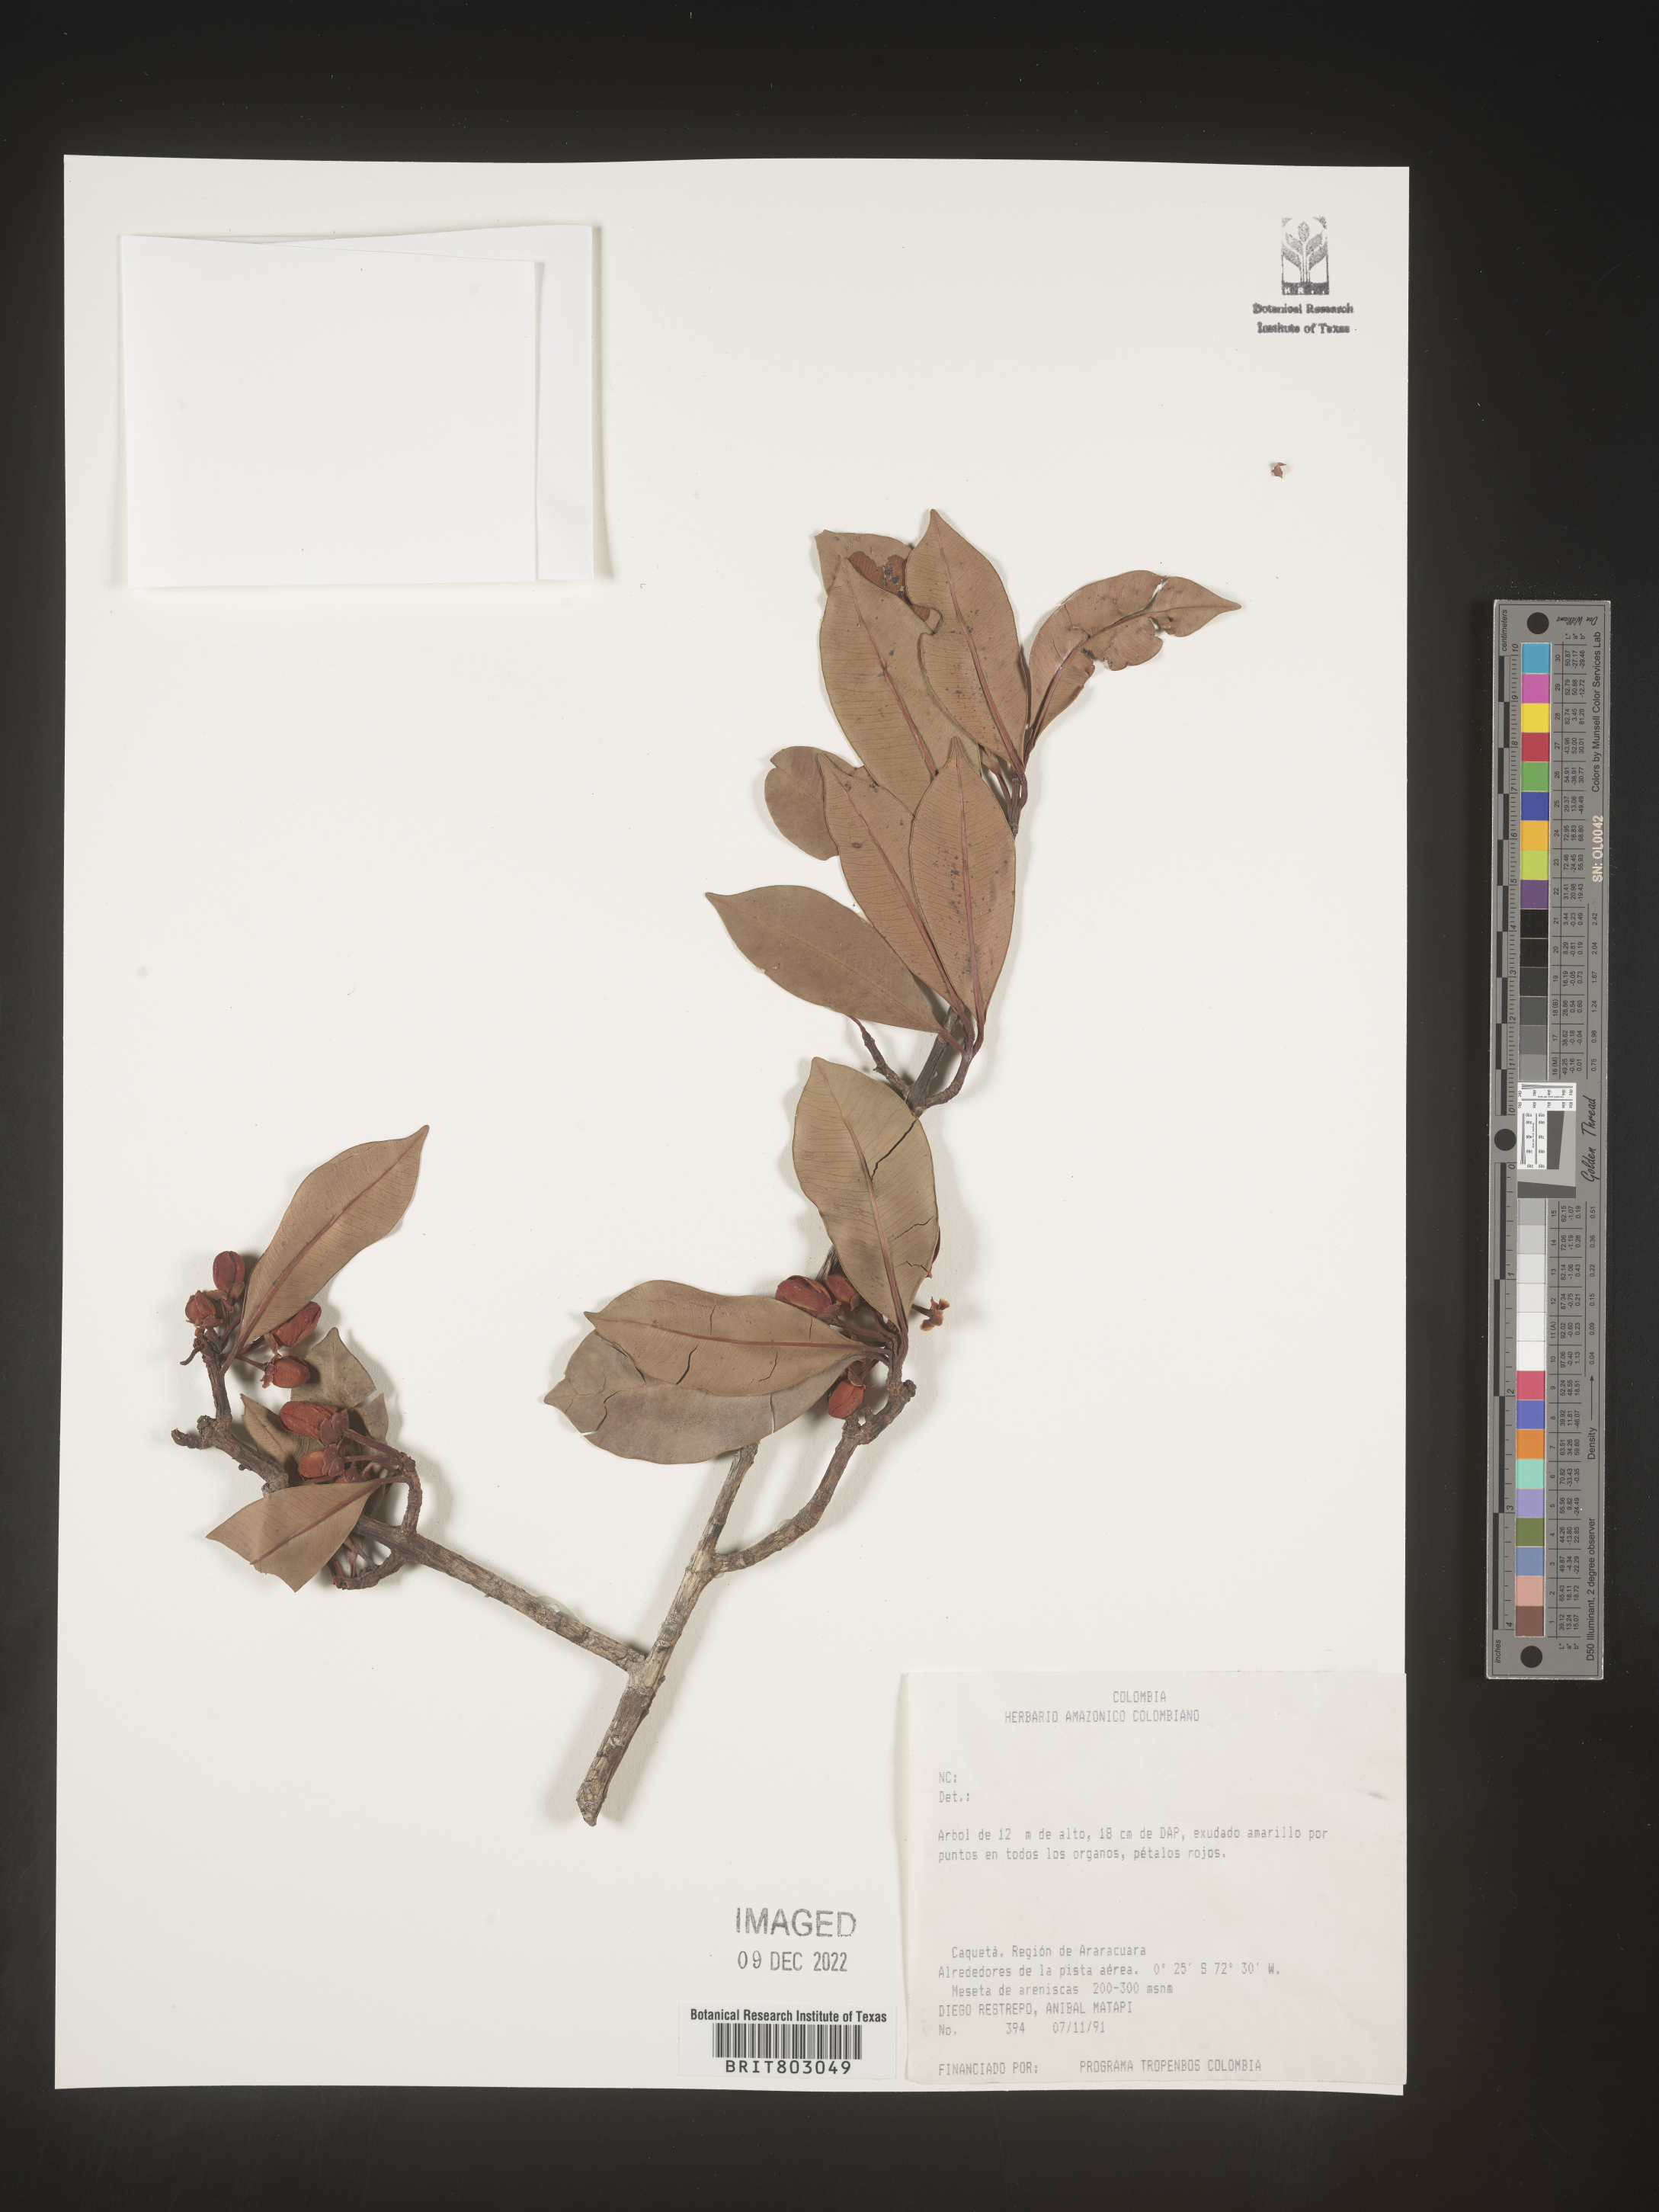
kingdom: Plantae
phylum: Tracheophyta
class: Magnoliopsida
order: Malpighiales
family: Clusiaceae
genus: Symphonia
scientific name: Symphonia
